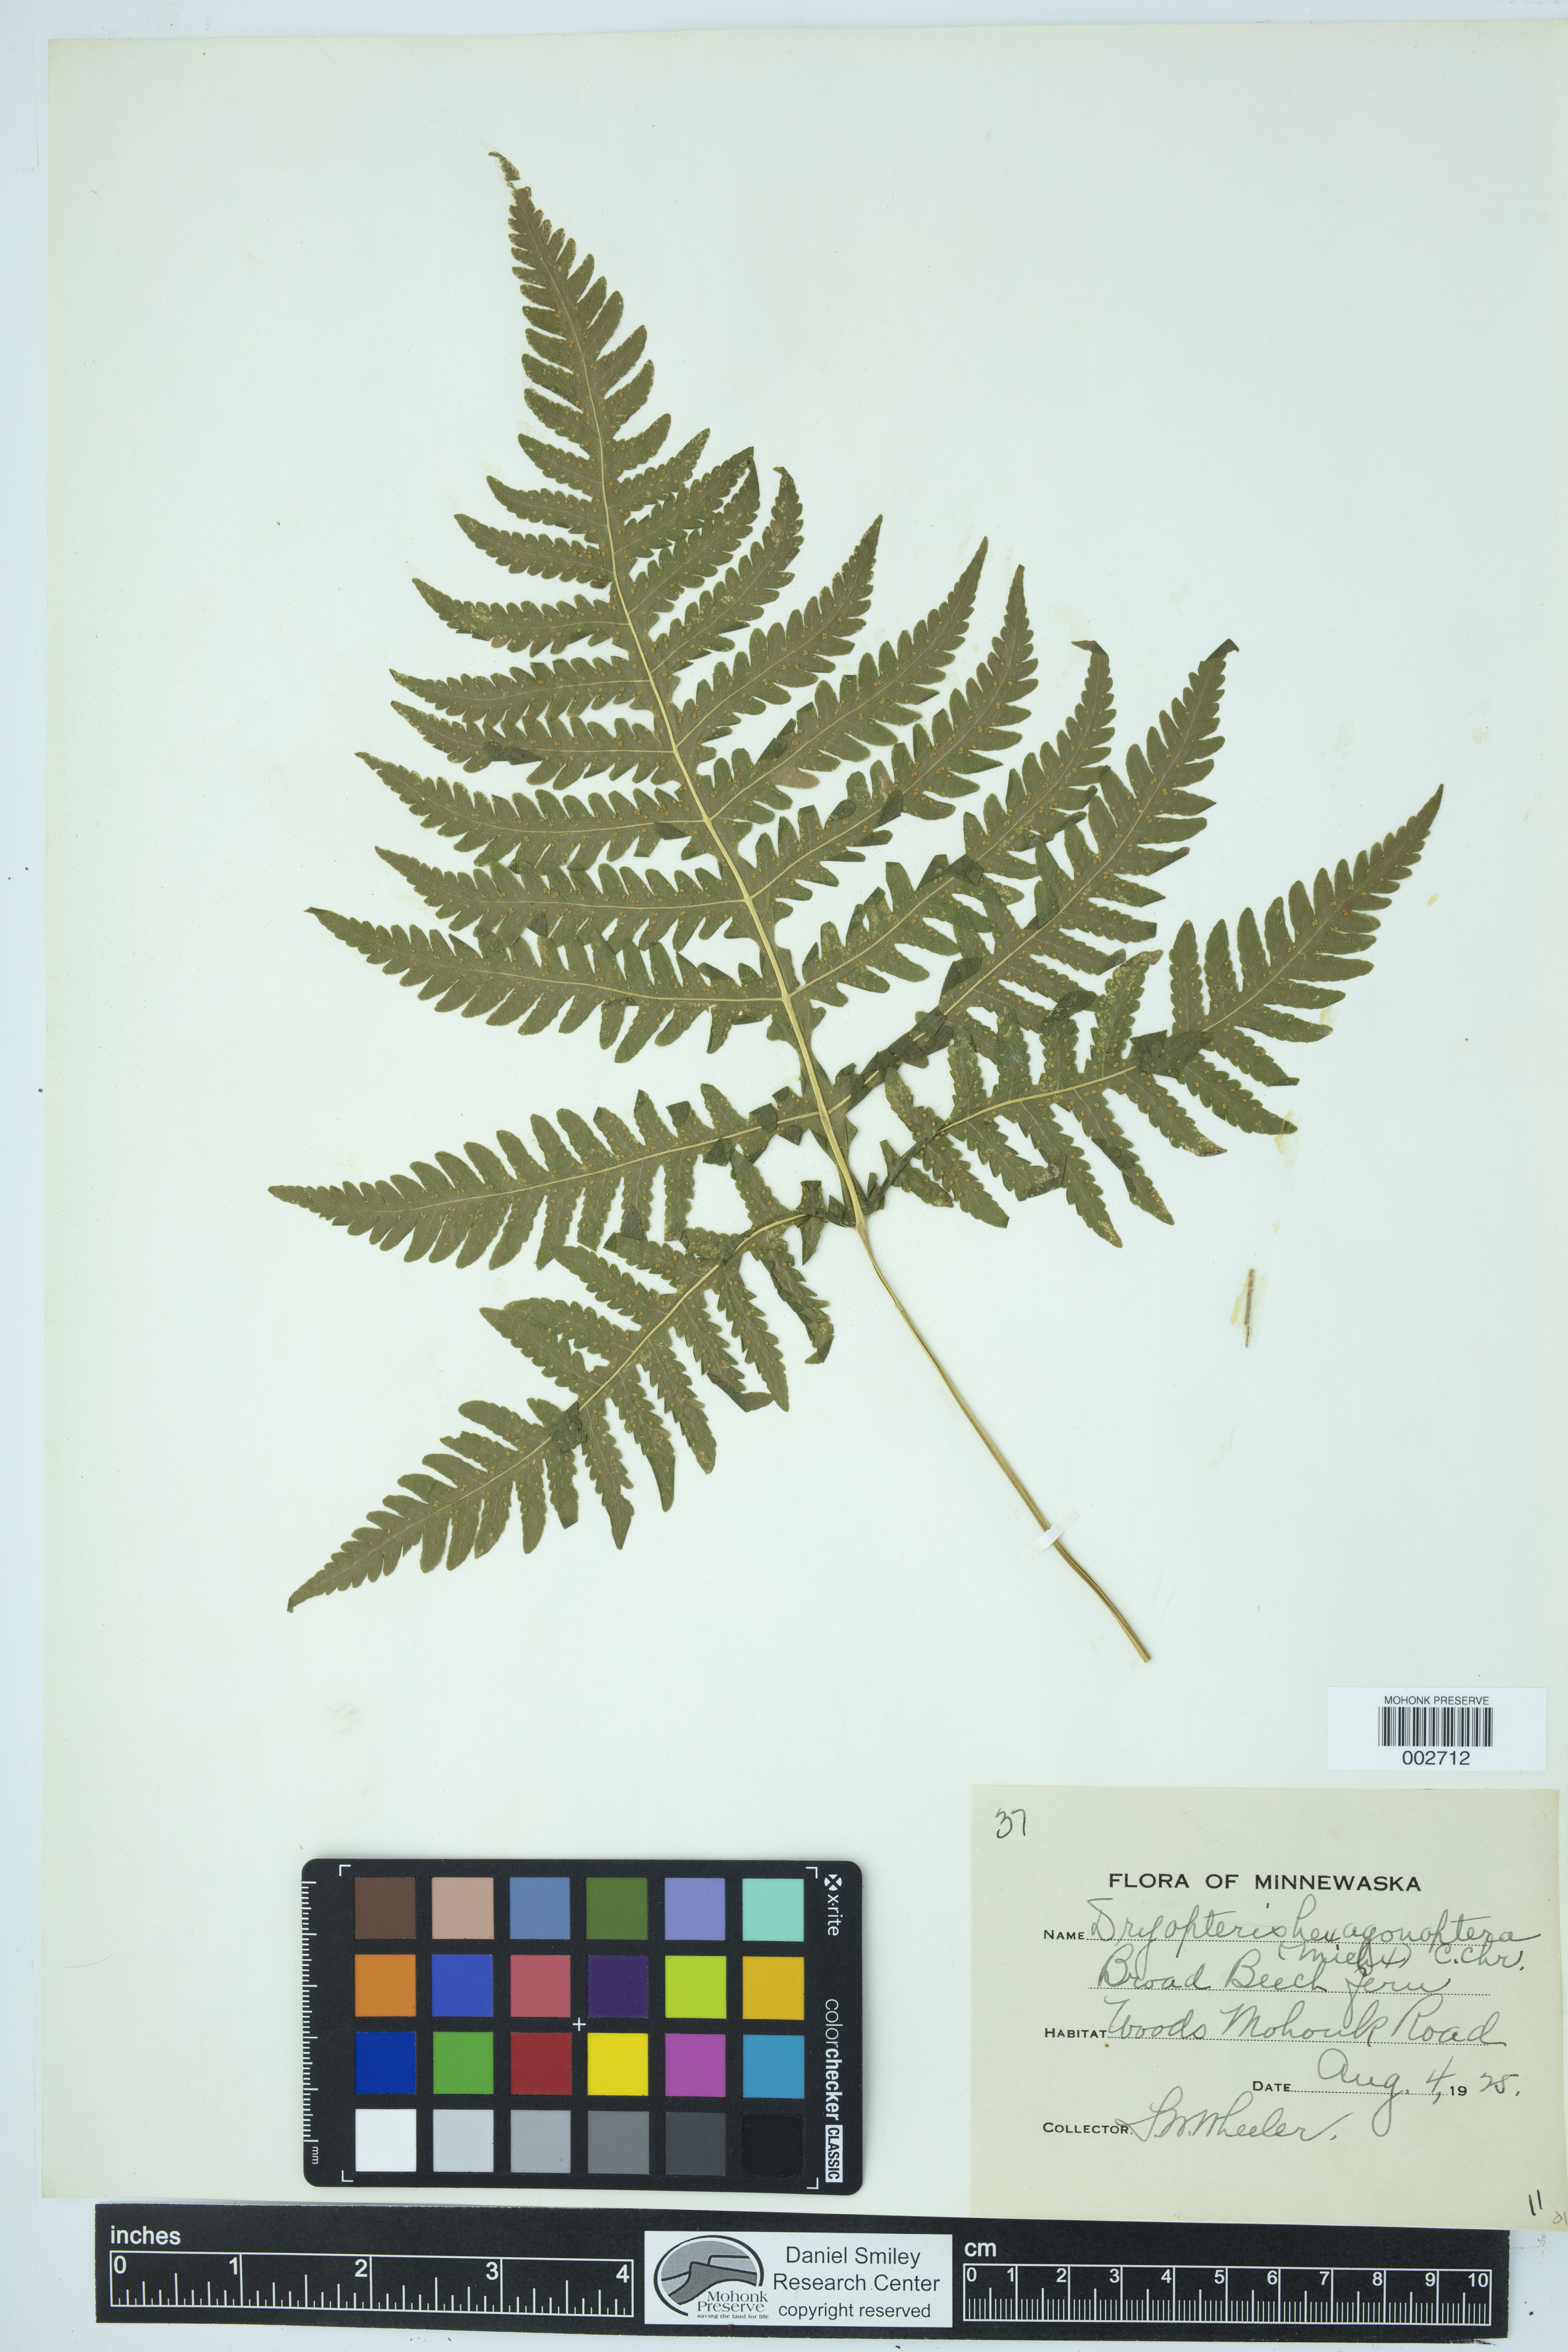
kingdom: Plantae
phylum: Tracheophyta
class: Polypodiopsida
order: Polypodiales
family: Thelypteridaceae
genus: Phegopteris
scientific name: Phegopteris hexagonoptera
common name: Broad beech fern
